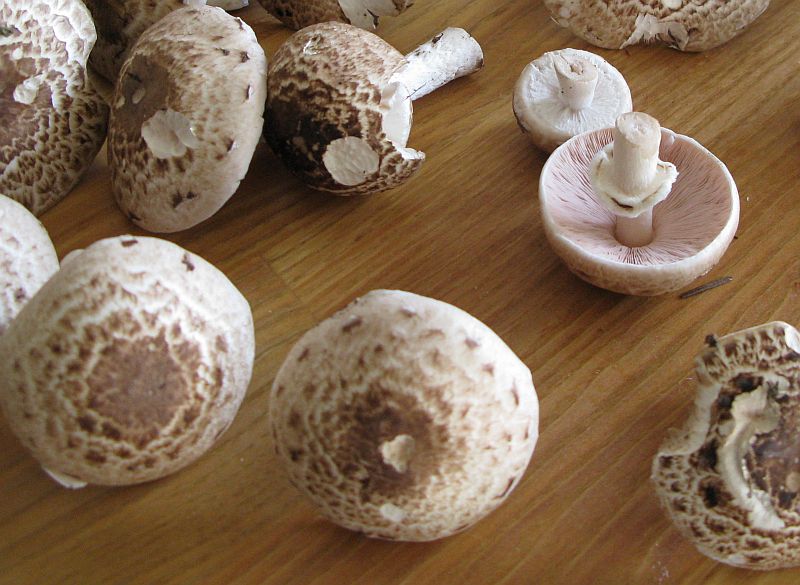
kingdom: Fungi
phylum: Basidiomycota
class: Agaricomycetes
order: Agaricales
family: Agaricaceae
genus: Agaricus
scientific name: Agaricus impudicus
